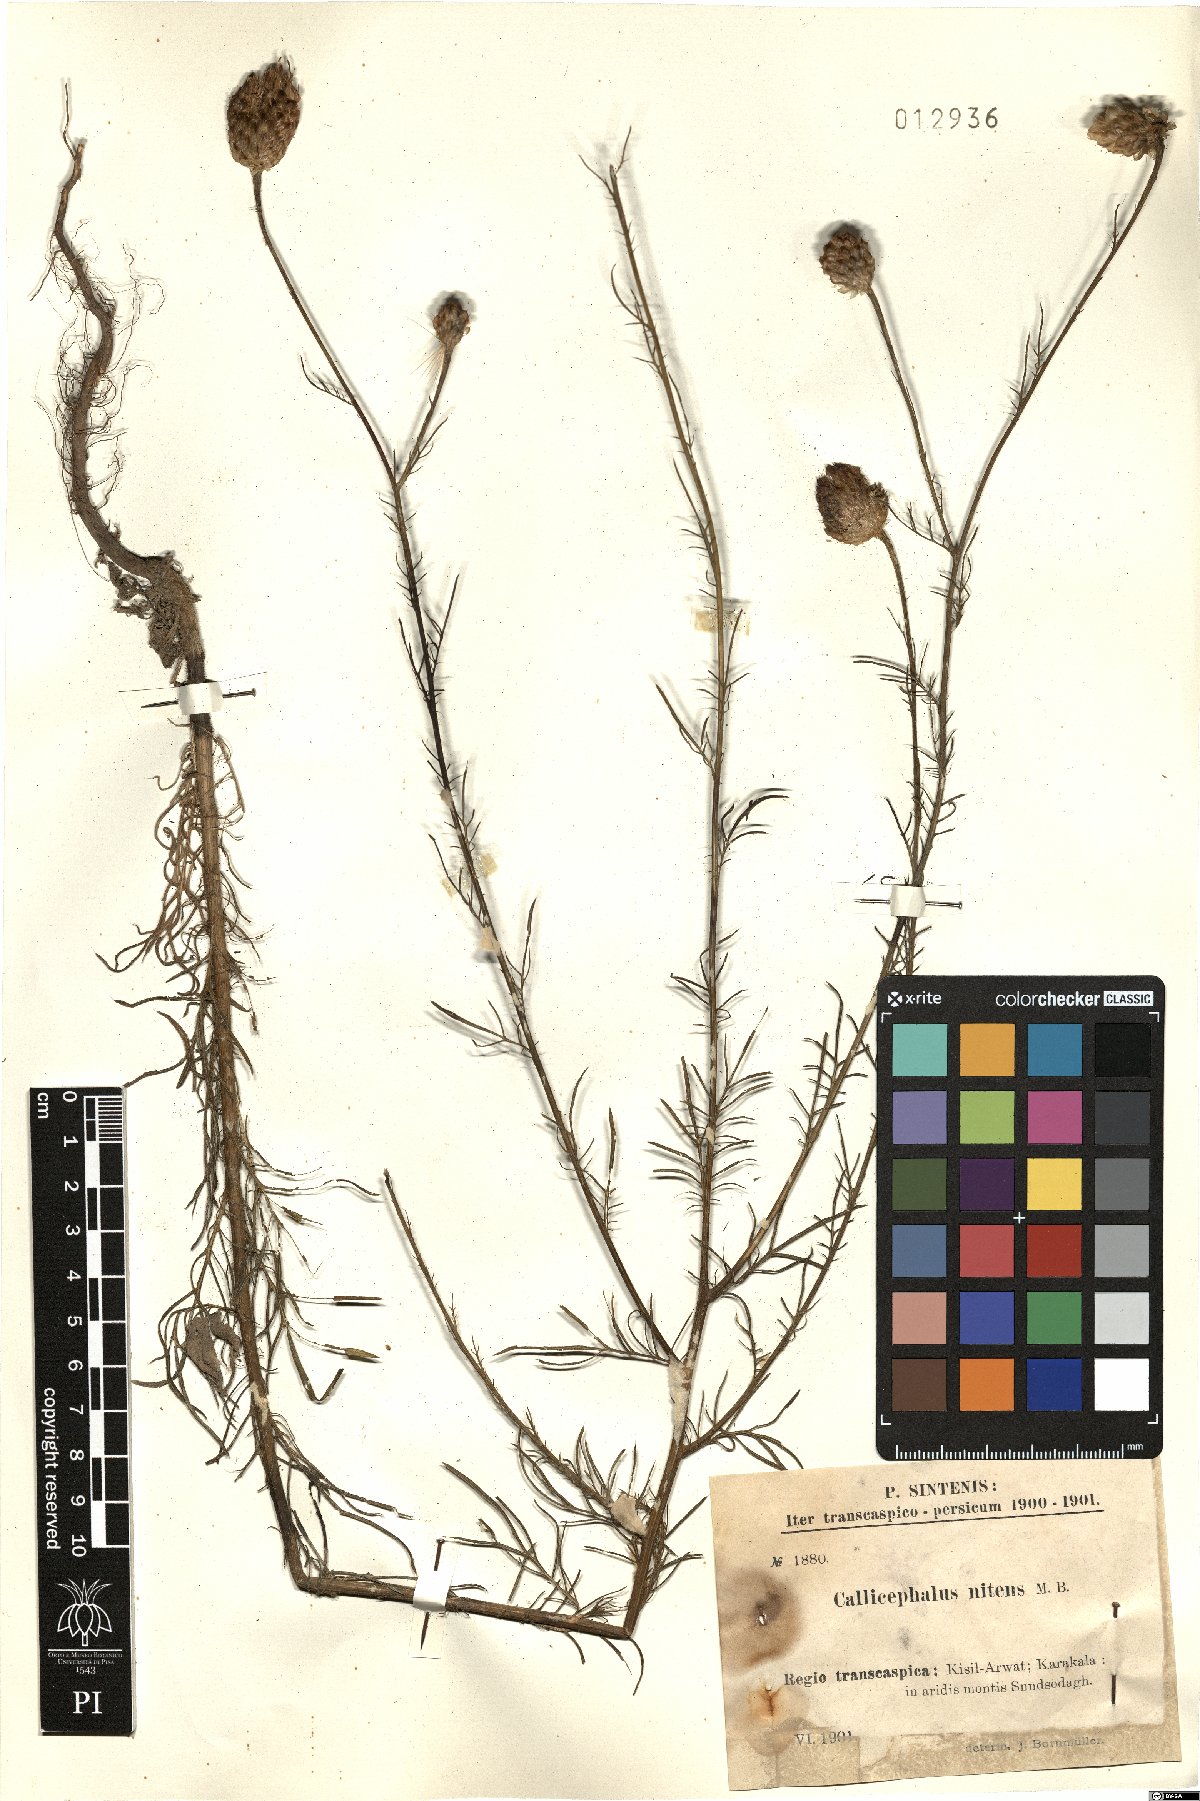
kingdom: Plantae
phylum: Tracheophyta
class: Magnoliopsida
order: Asterales
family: Asteraceae
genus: Callicephalus
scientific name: Callicephalus nitens
